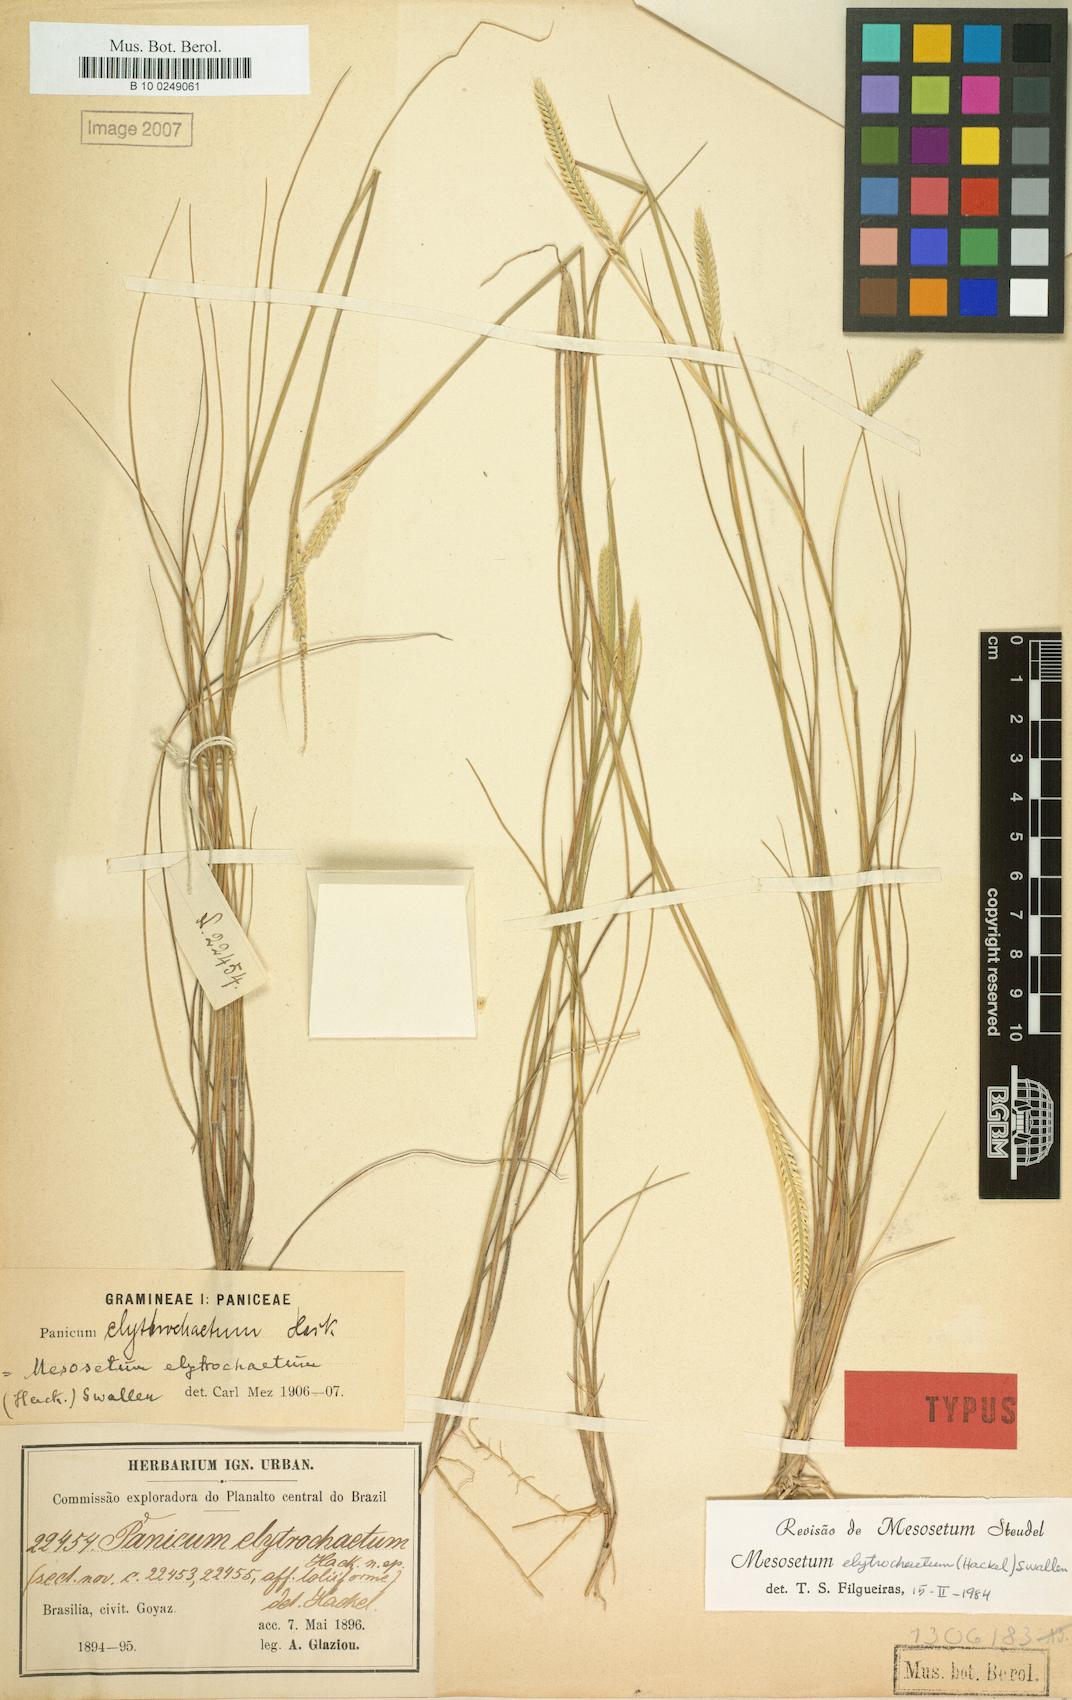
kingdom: Plantae
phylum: Tracheophyta
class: Liliopsida
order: Poales
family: Poaceae
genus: Mesosetum
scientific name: Mesosetum elytrochaetum
